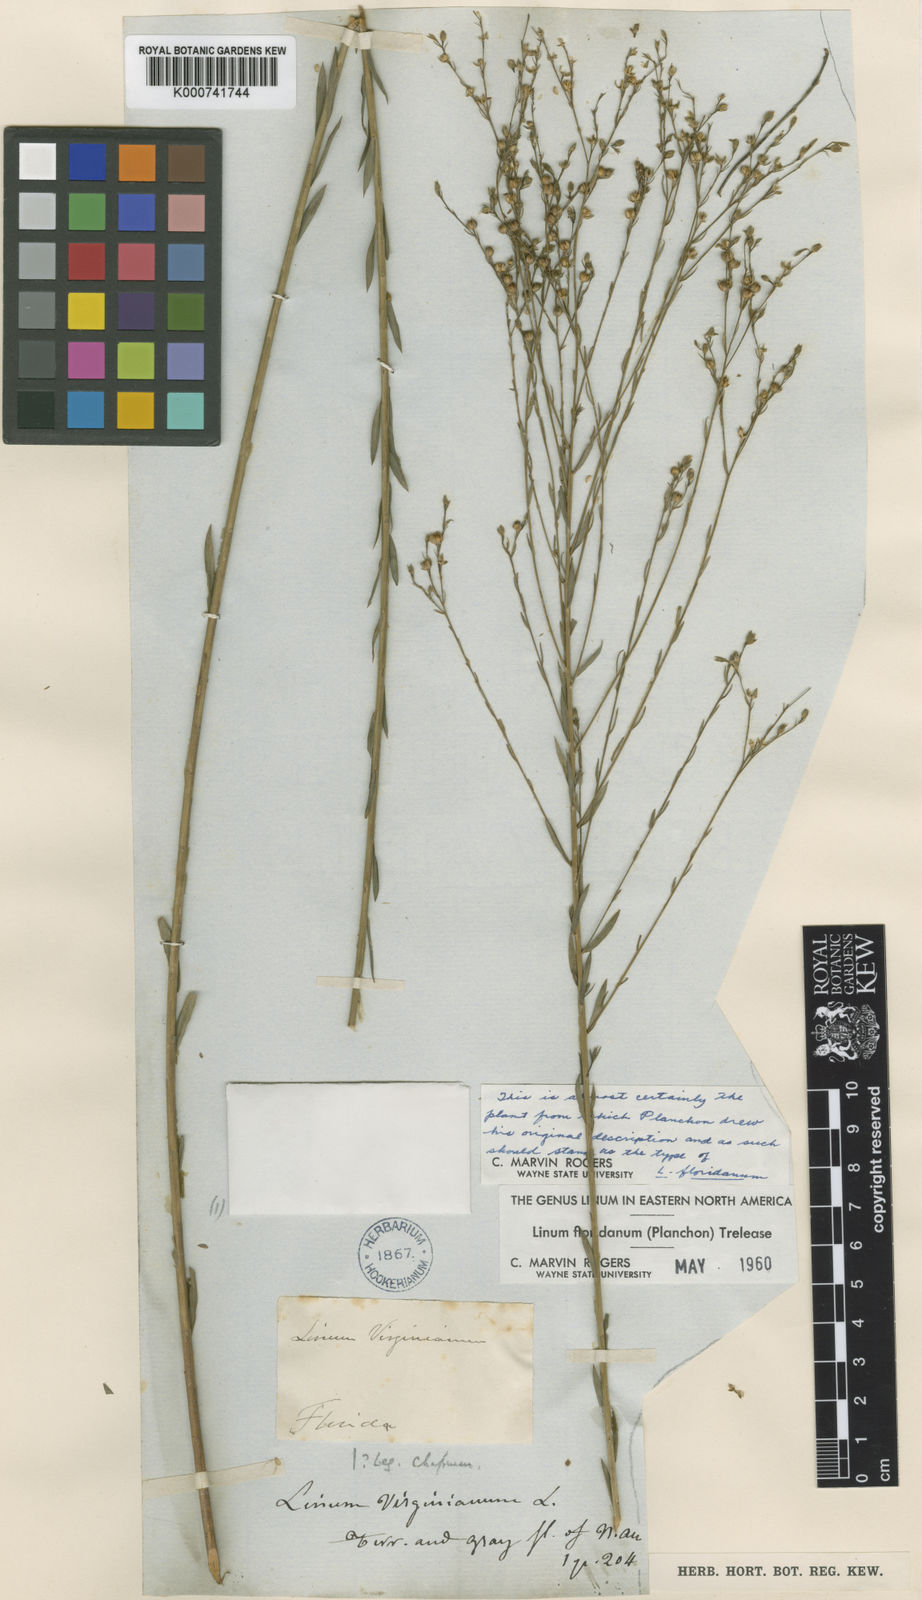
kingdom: Plantae
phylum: Tracheophyta
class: Magnoliopsida
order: Malpighiales
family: Linaceae
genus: Linum
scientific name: Linum floridanum
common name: Florida yellow flax
